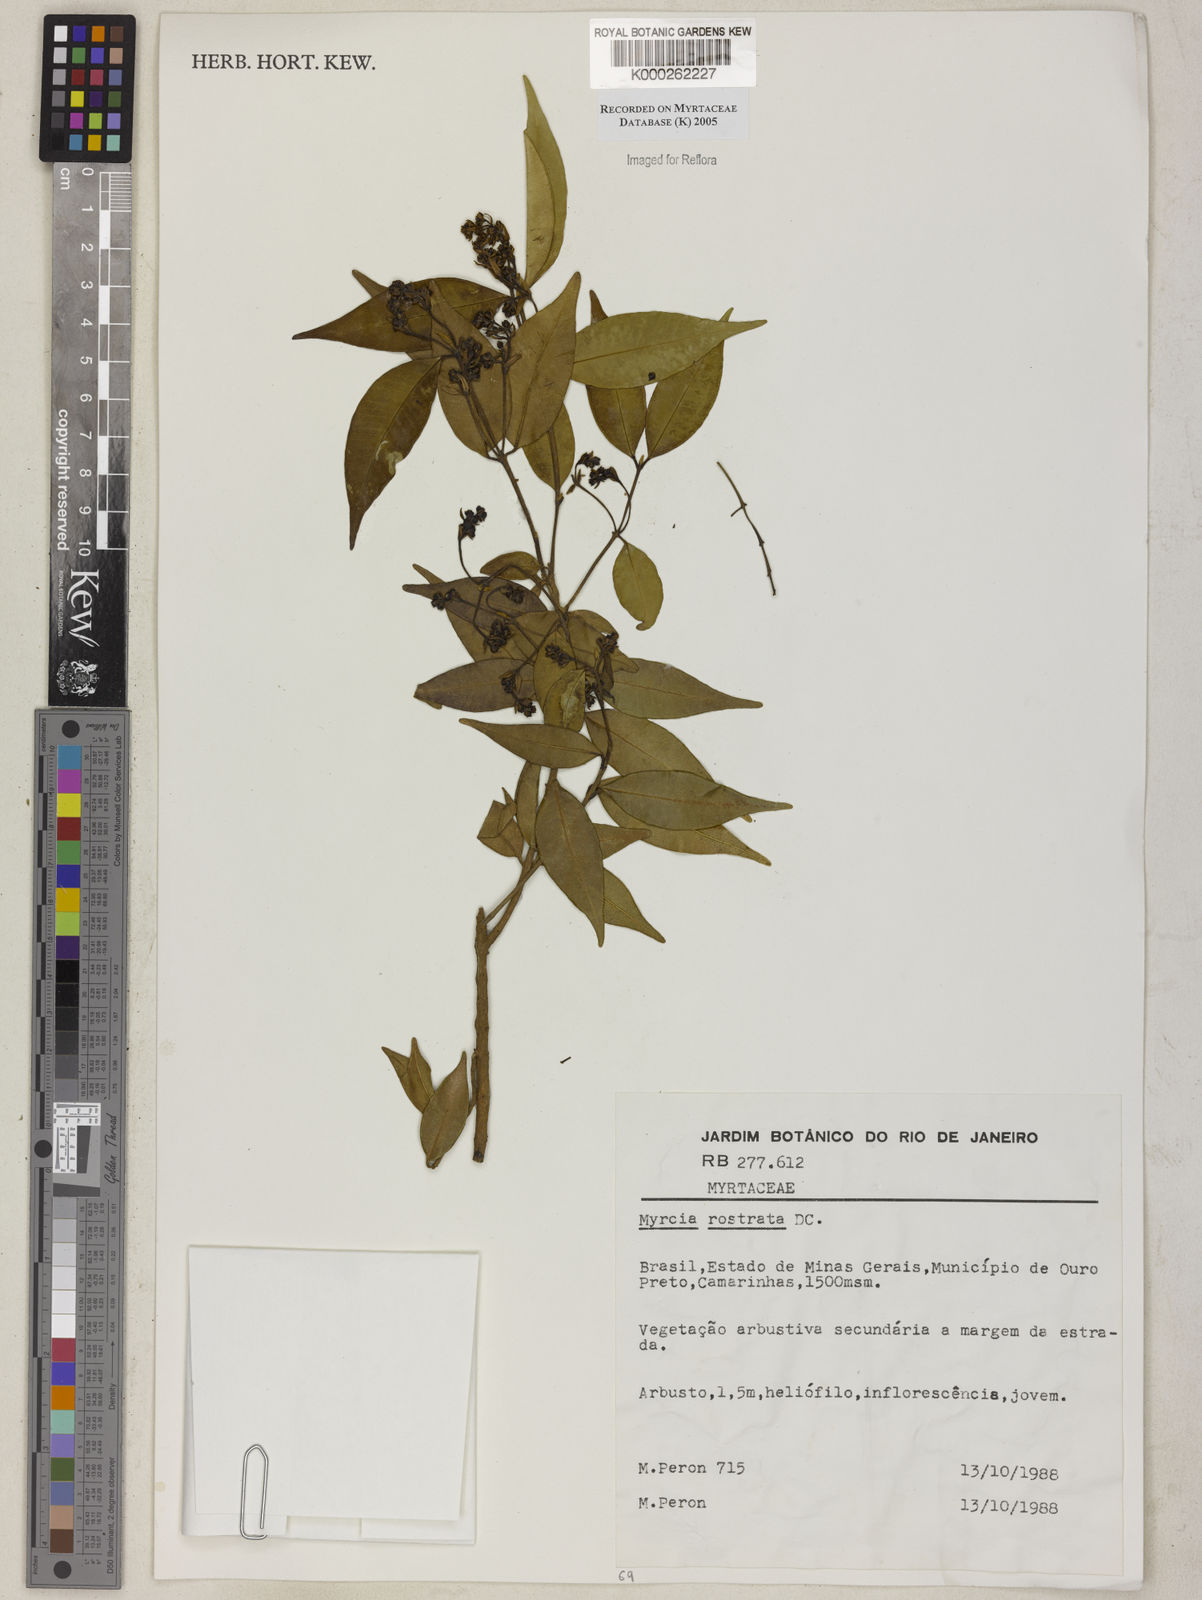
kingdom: Plantae
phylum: Tracheophyta
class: Magnoliopsida
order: Myrtales
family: Myrtaceae
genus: Myrcia
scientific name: Myrcia splendens
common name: Surinam cherry
